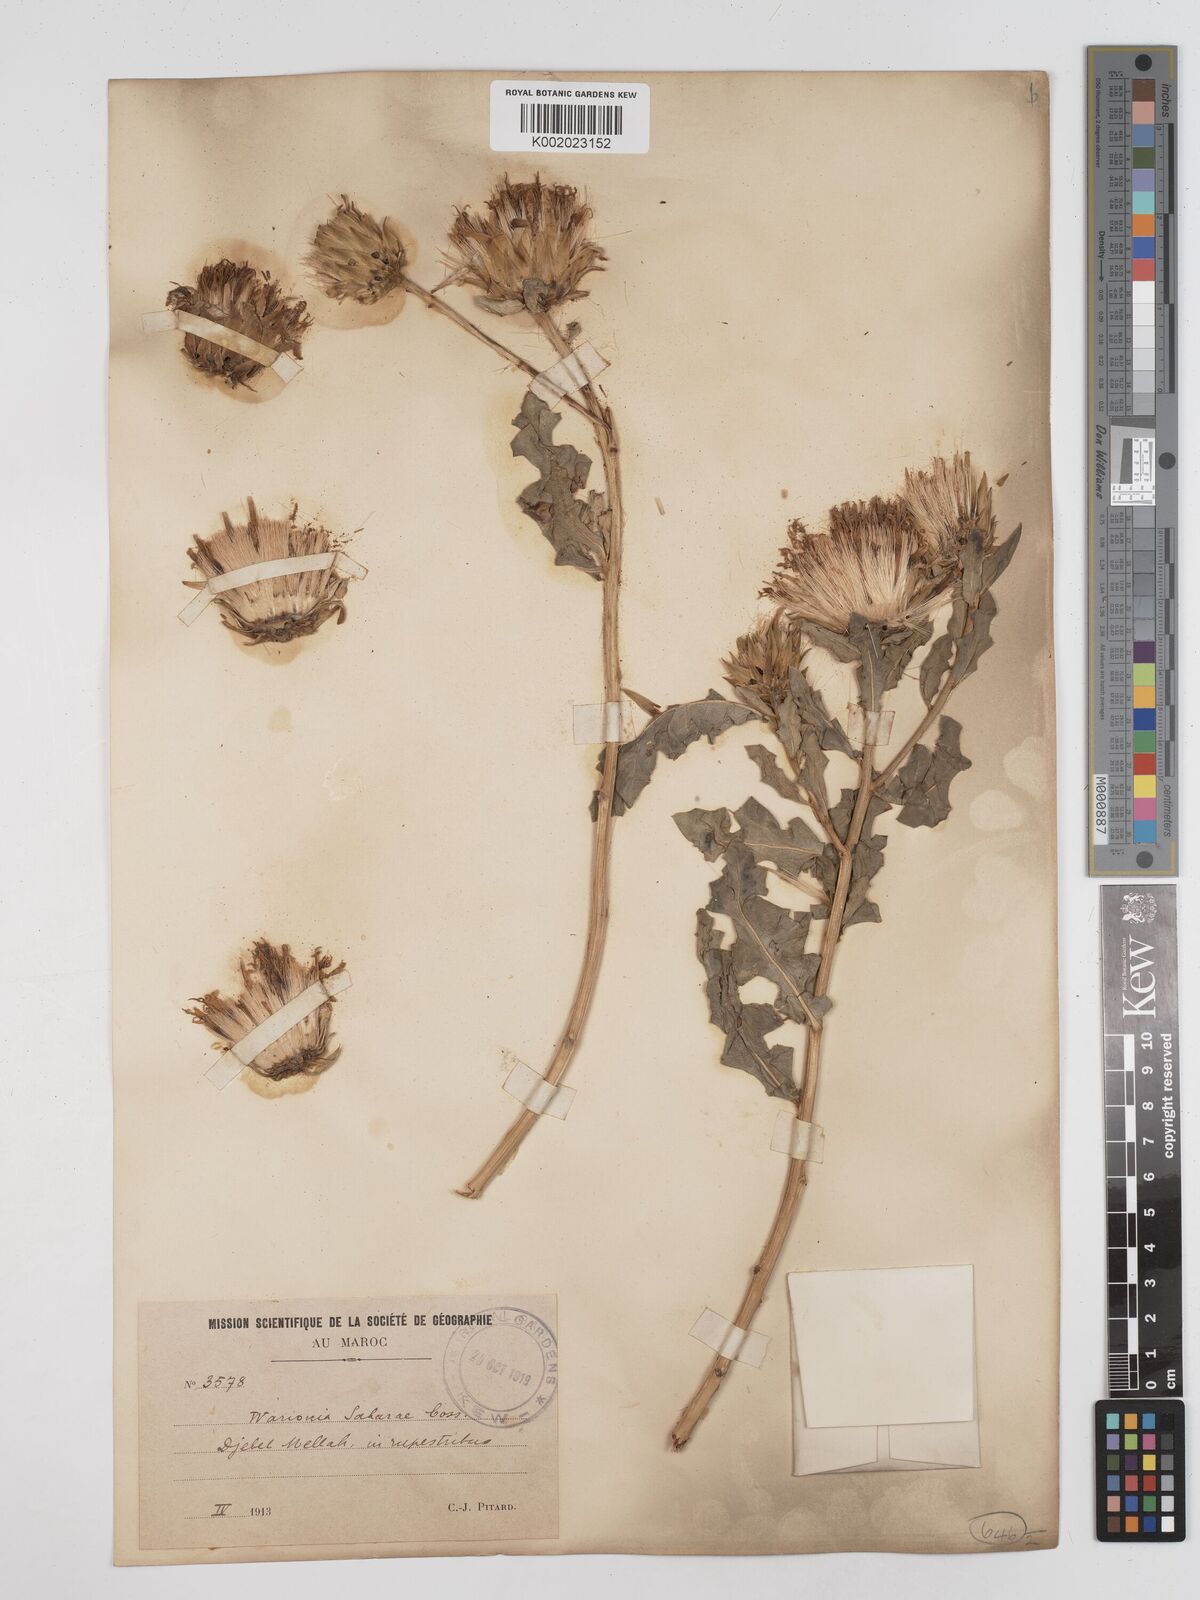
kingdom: Plantae
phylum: Tracheophyta
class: Magnoliopsida
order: Asterales
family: Asteraceae
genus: Warionia
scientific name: Warionia saharae
